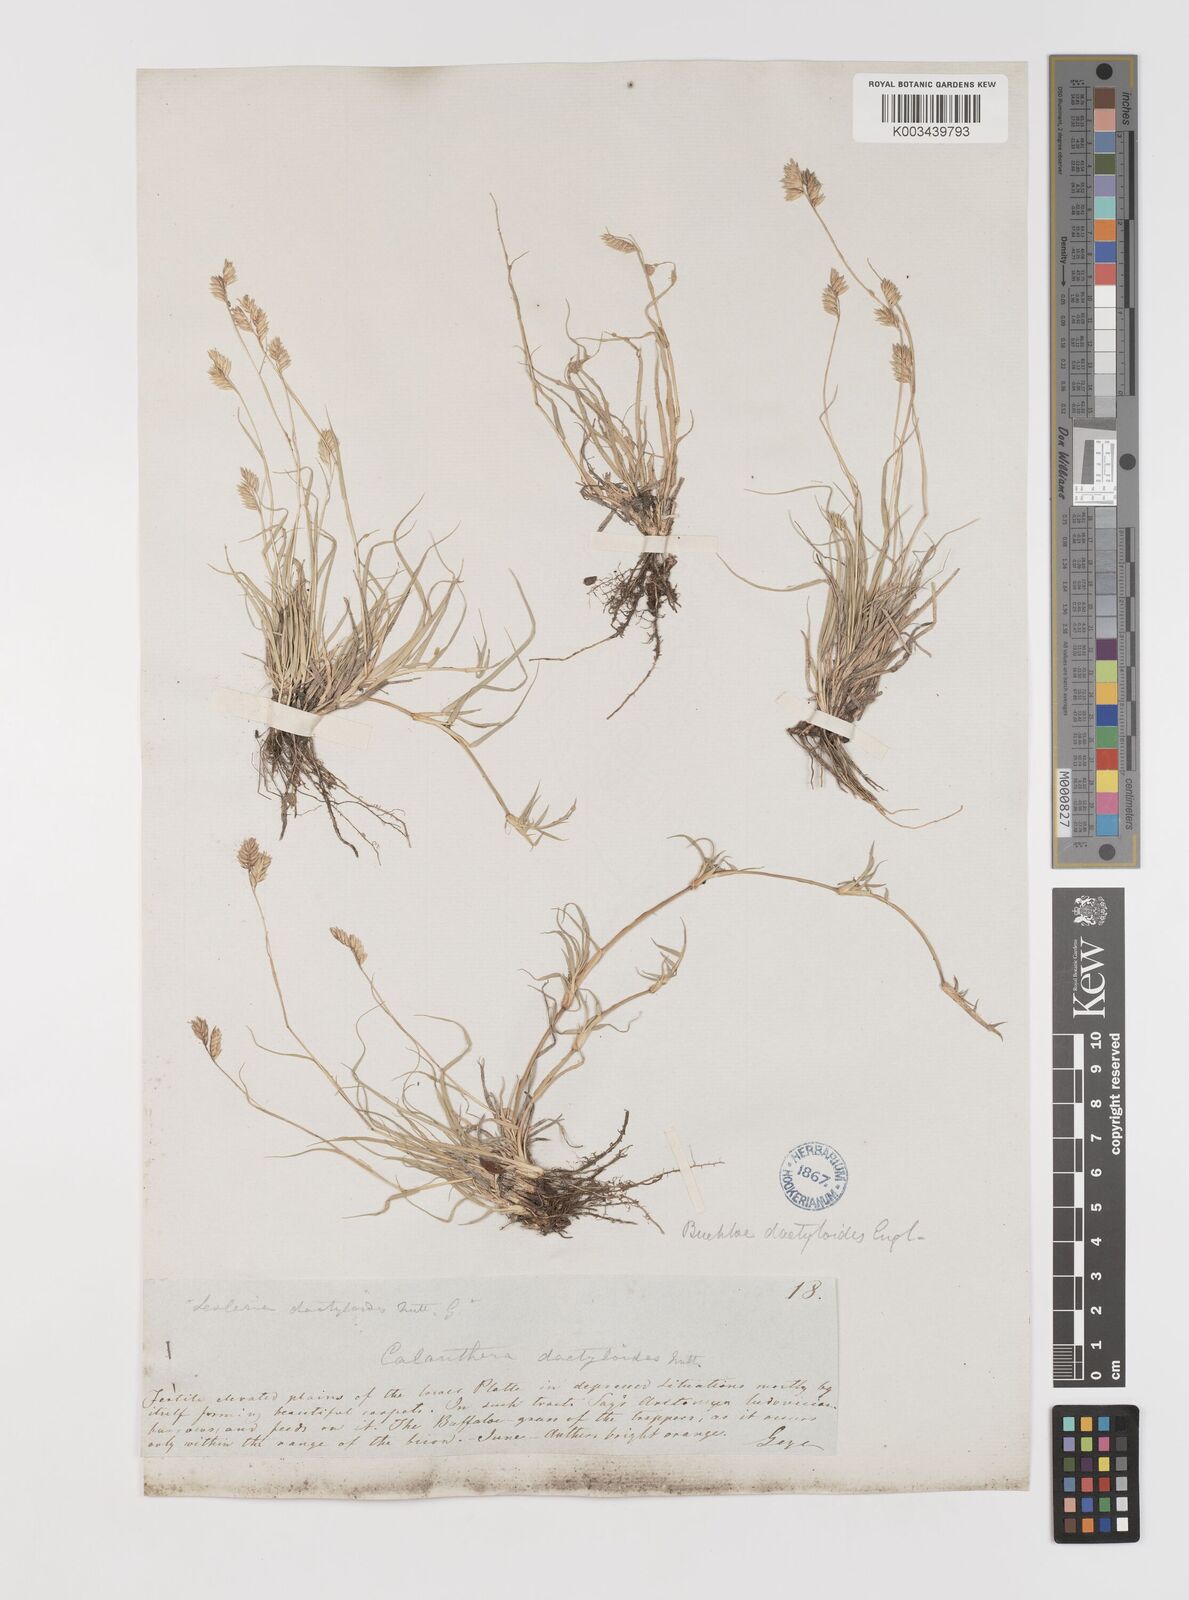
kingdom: Plantae
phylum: Tracheophyta
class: Liliopsida
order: Poales
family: Poaceae
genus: Bouteloua
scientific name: Bouteloua dactyloides
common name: Buffalo grass
